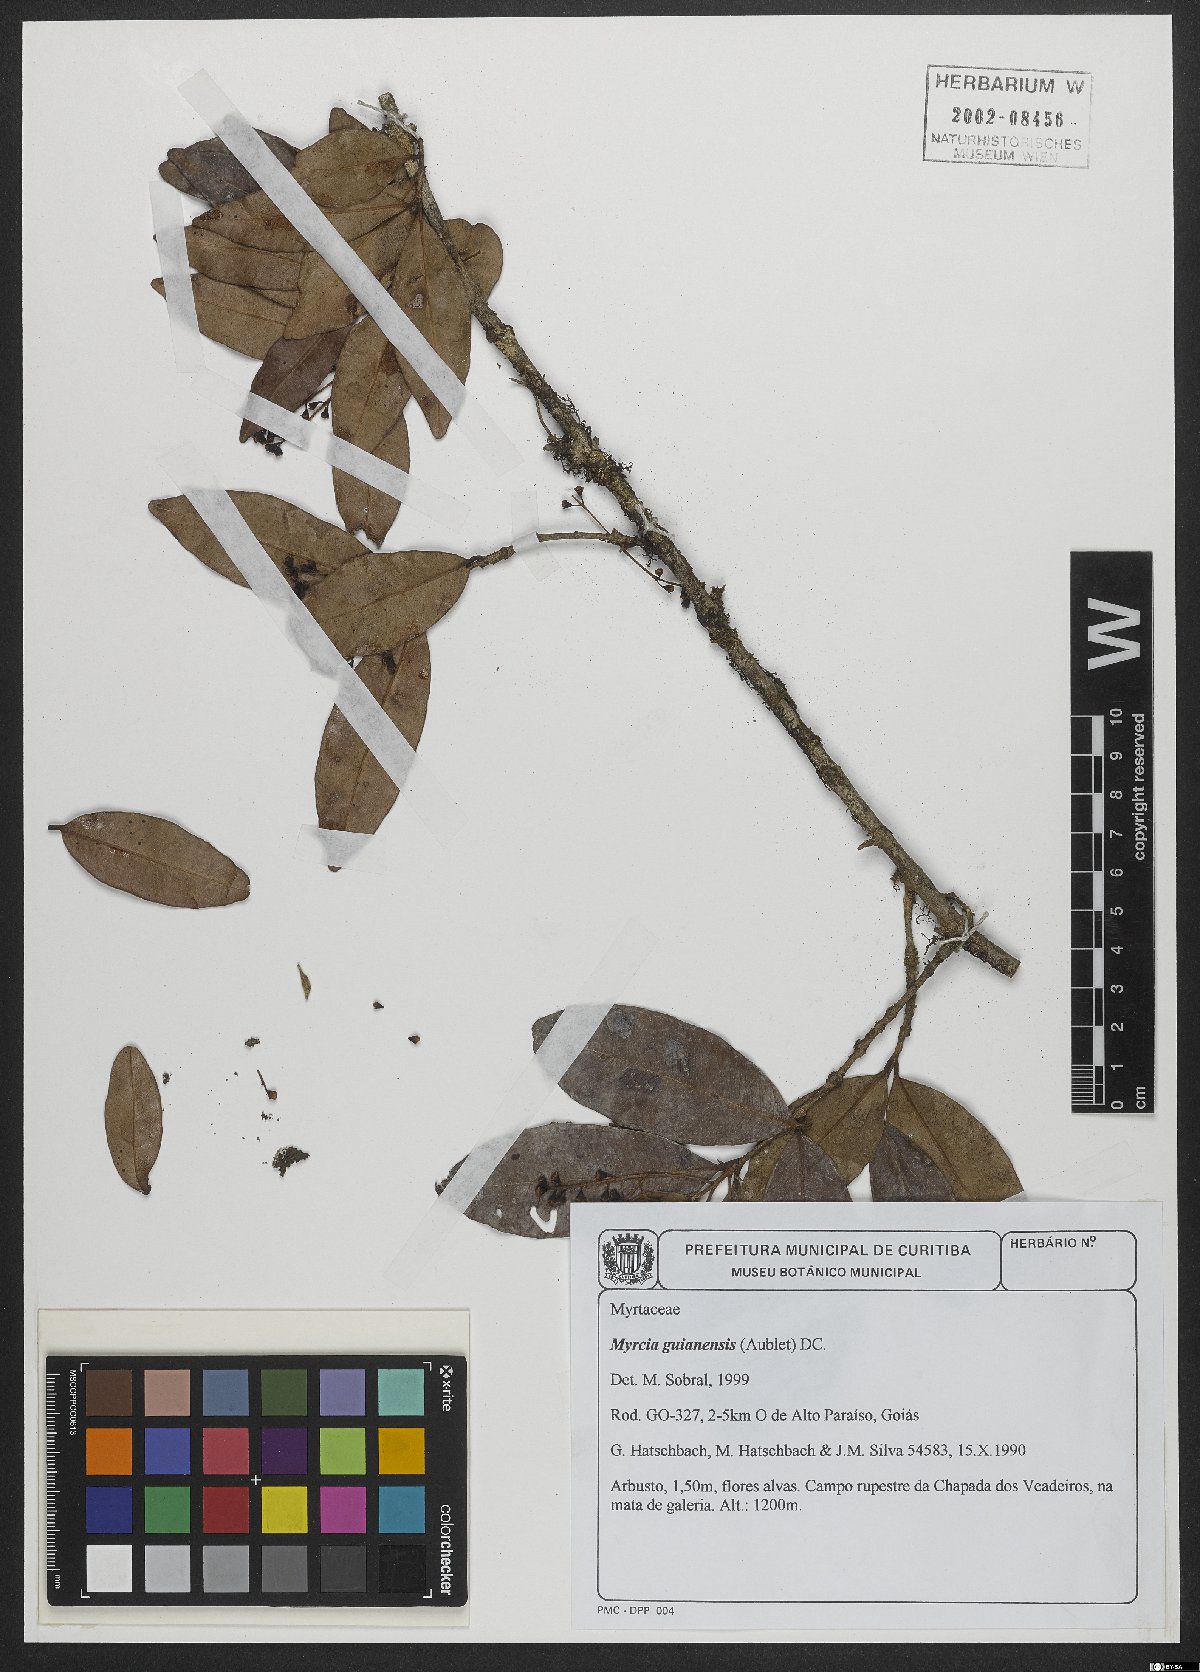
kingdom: Plantae
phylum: Tracheophyta
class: Magnoliopsida
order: Myrtales
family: Myrtaceae
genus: Myrcia
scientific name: Myrcia guianensis
